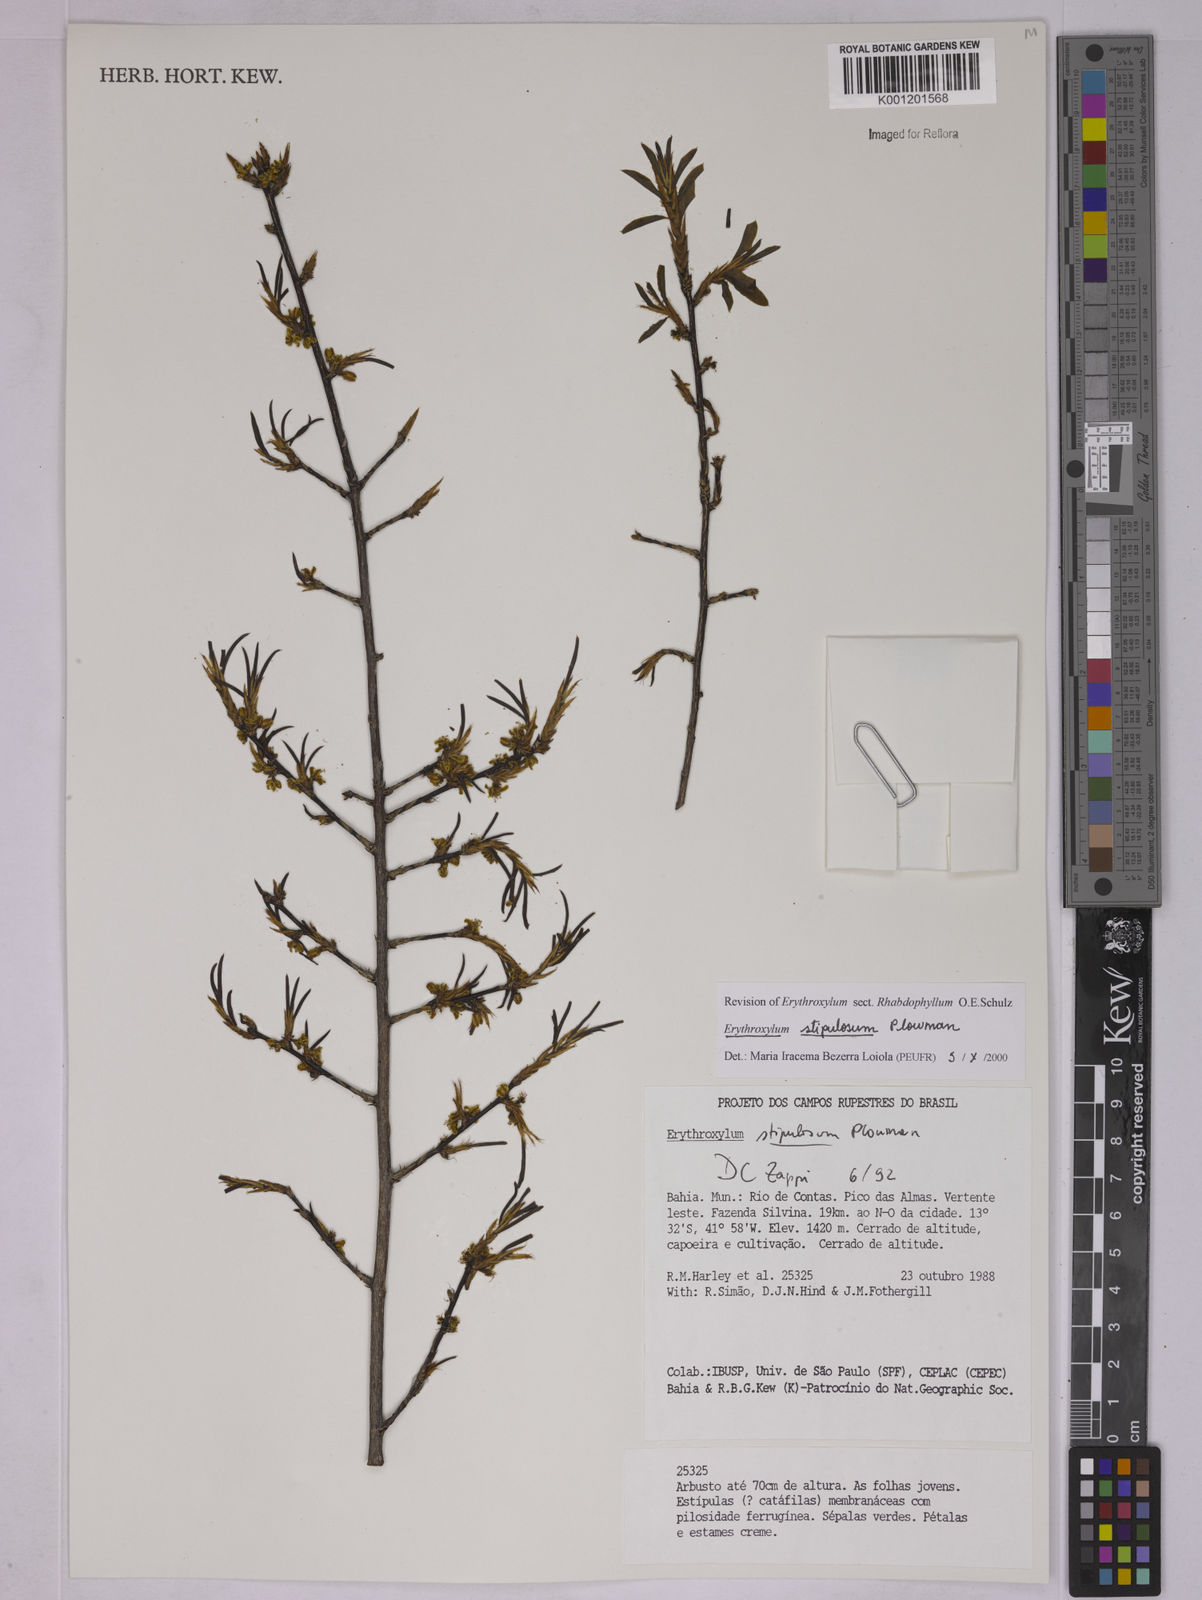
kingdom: Plantae
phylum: Tracheophyta
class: Magnoliopsida
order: Malpighiales
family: Erythroxylaceae
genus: Erythroxylum
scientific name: Erythroxylum stipulosum
